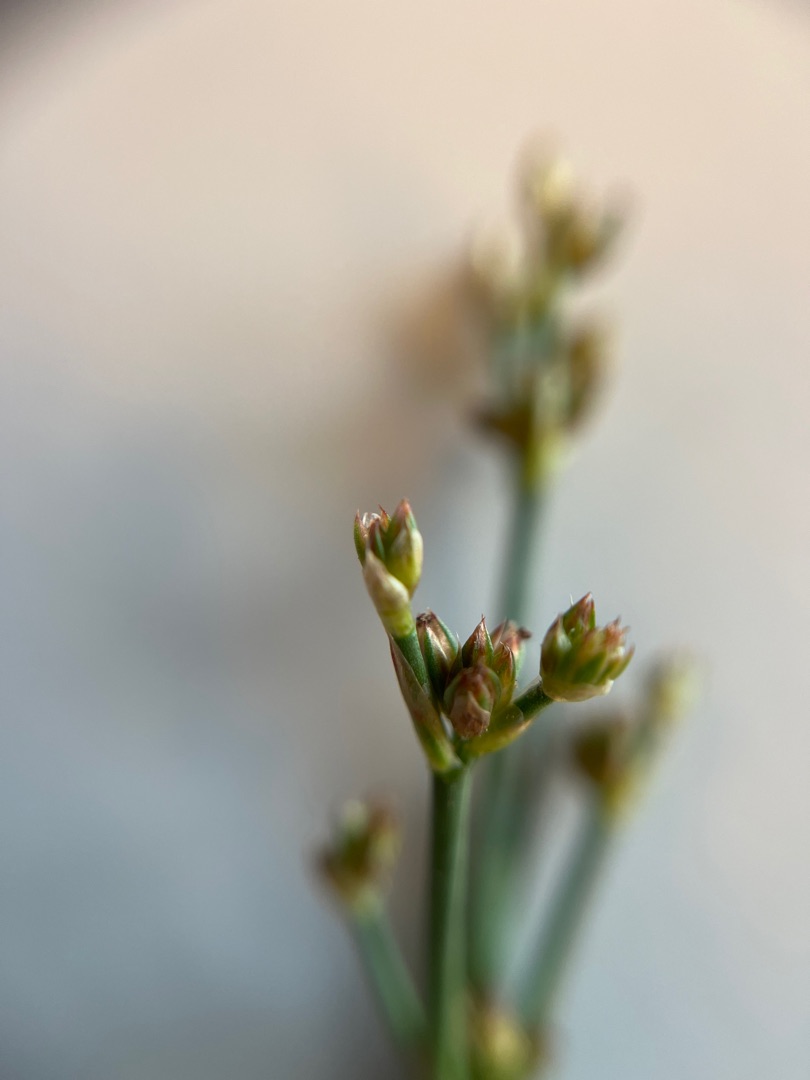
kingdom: Plantae
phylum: Tracheophyta
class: Liliopsida
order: Poales
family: Juncaceae
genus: Juncus
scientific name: Juncus articulatus
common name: Glanskapslet siv
